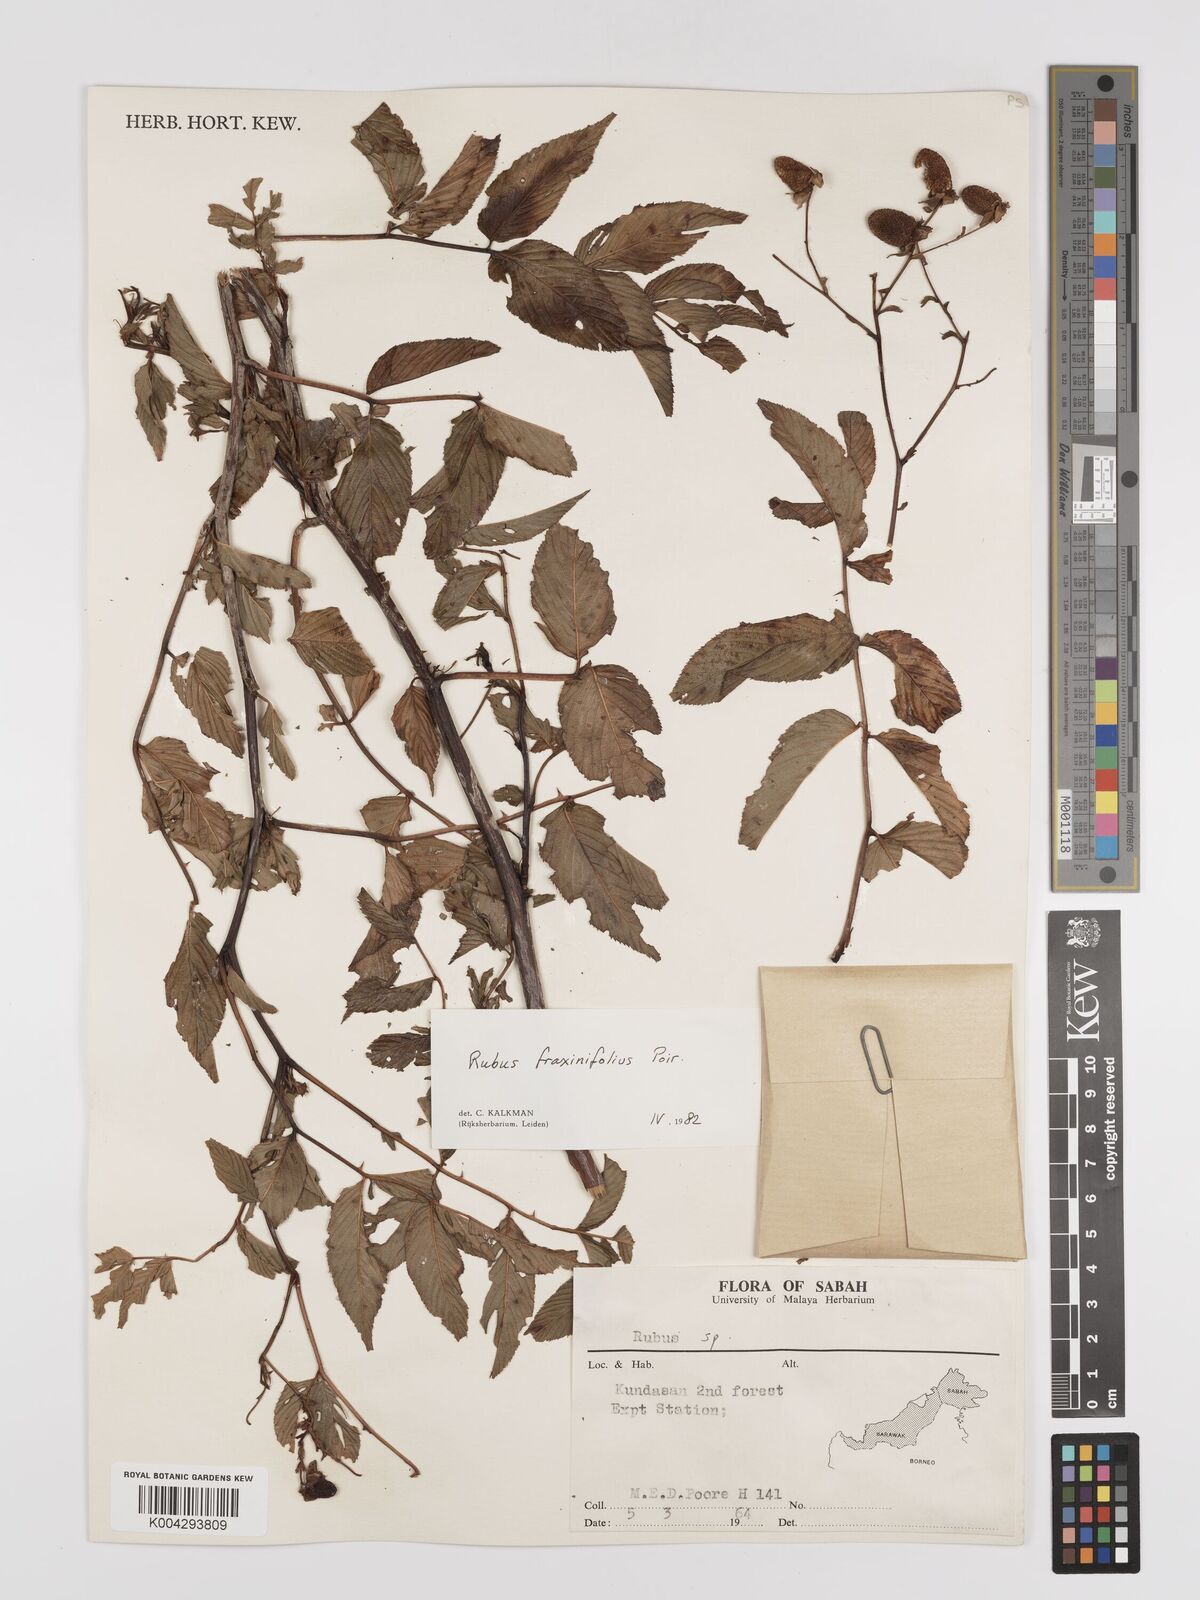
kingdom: Plantae
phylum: Tracheophyta
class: Magnoliopsida
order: Rosales
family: Rosaceae
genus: Rubus
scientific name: Rubus fraxinifolius
